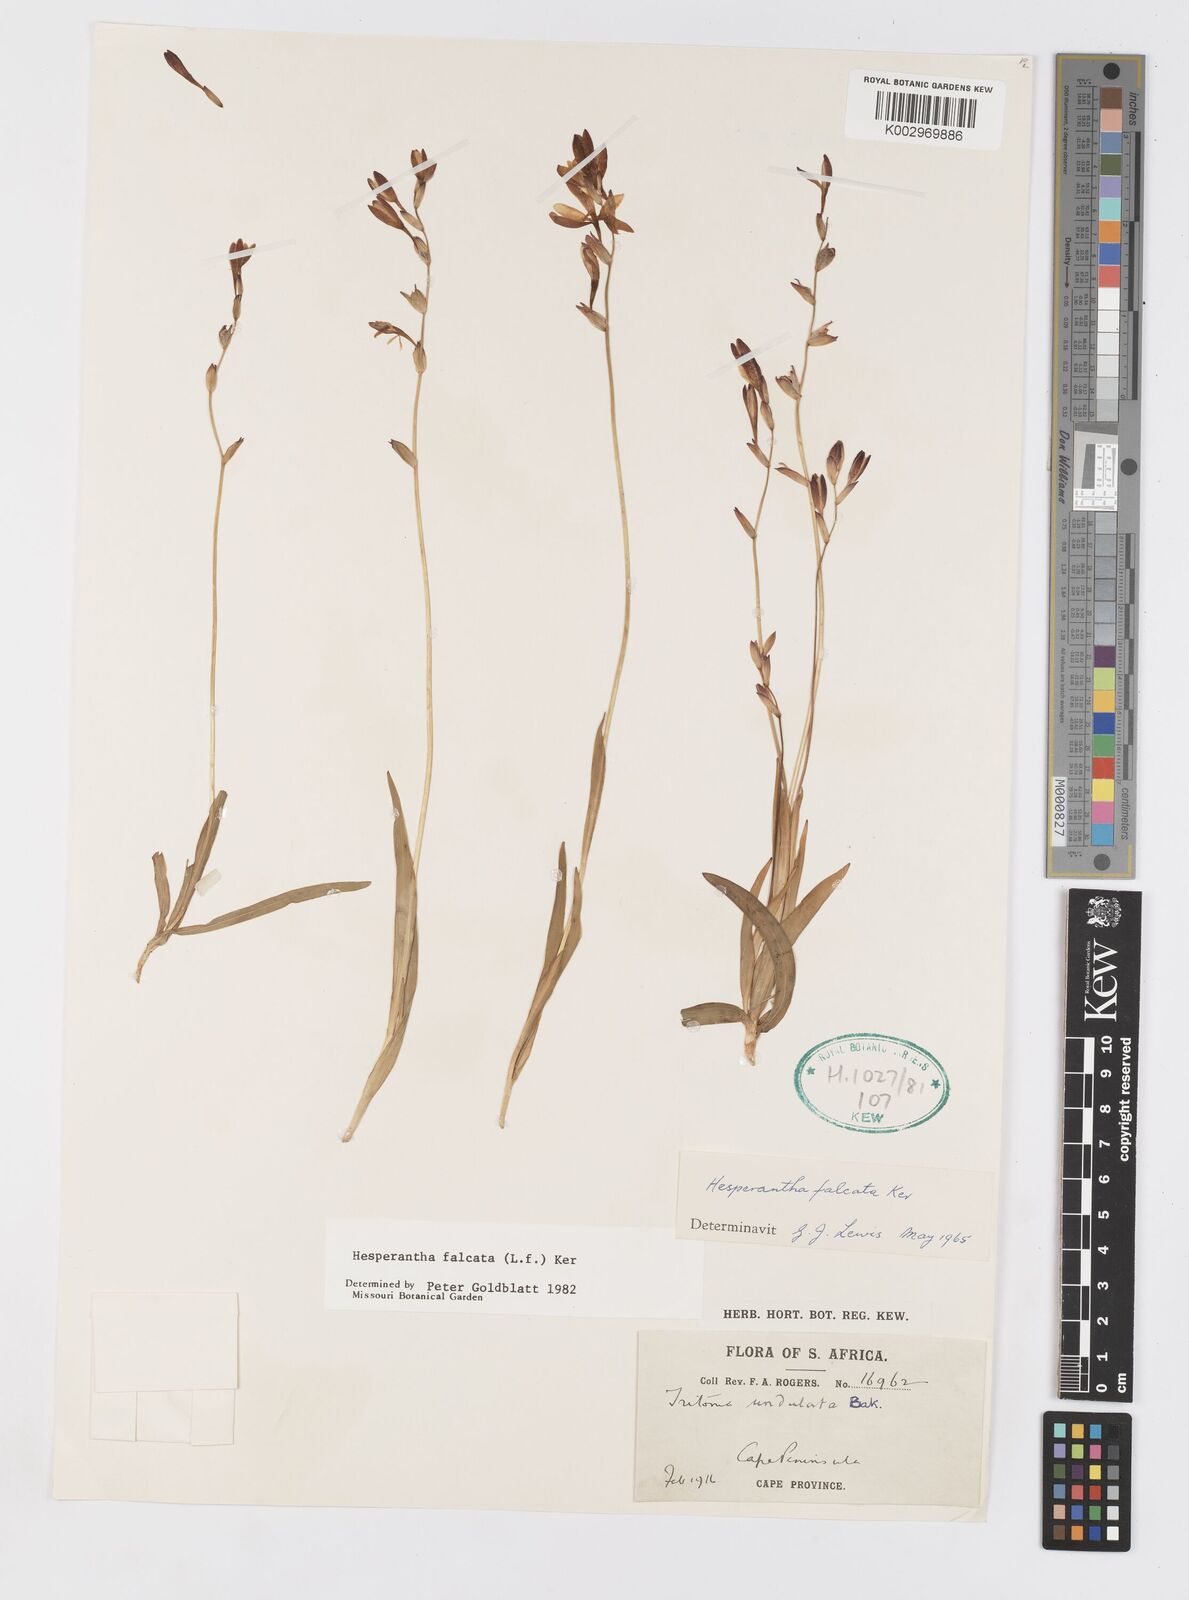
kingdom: Plantae
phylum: Tracheophyta
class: Liliopsida
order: Asparagales
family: Iridaceae
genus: Hesperantha
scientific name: Hesperantha falcata
